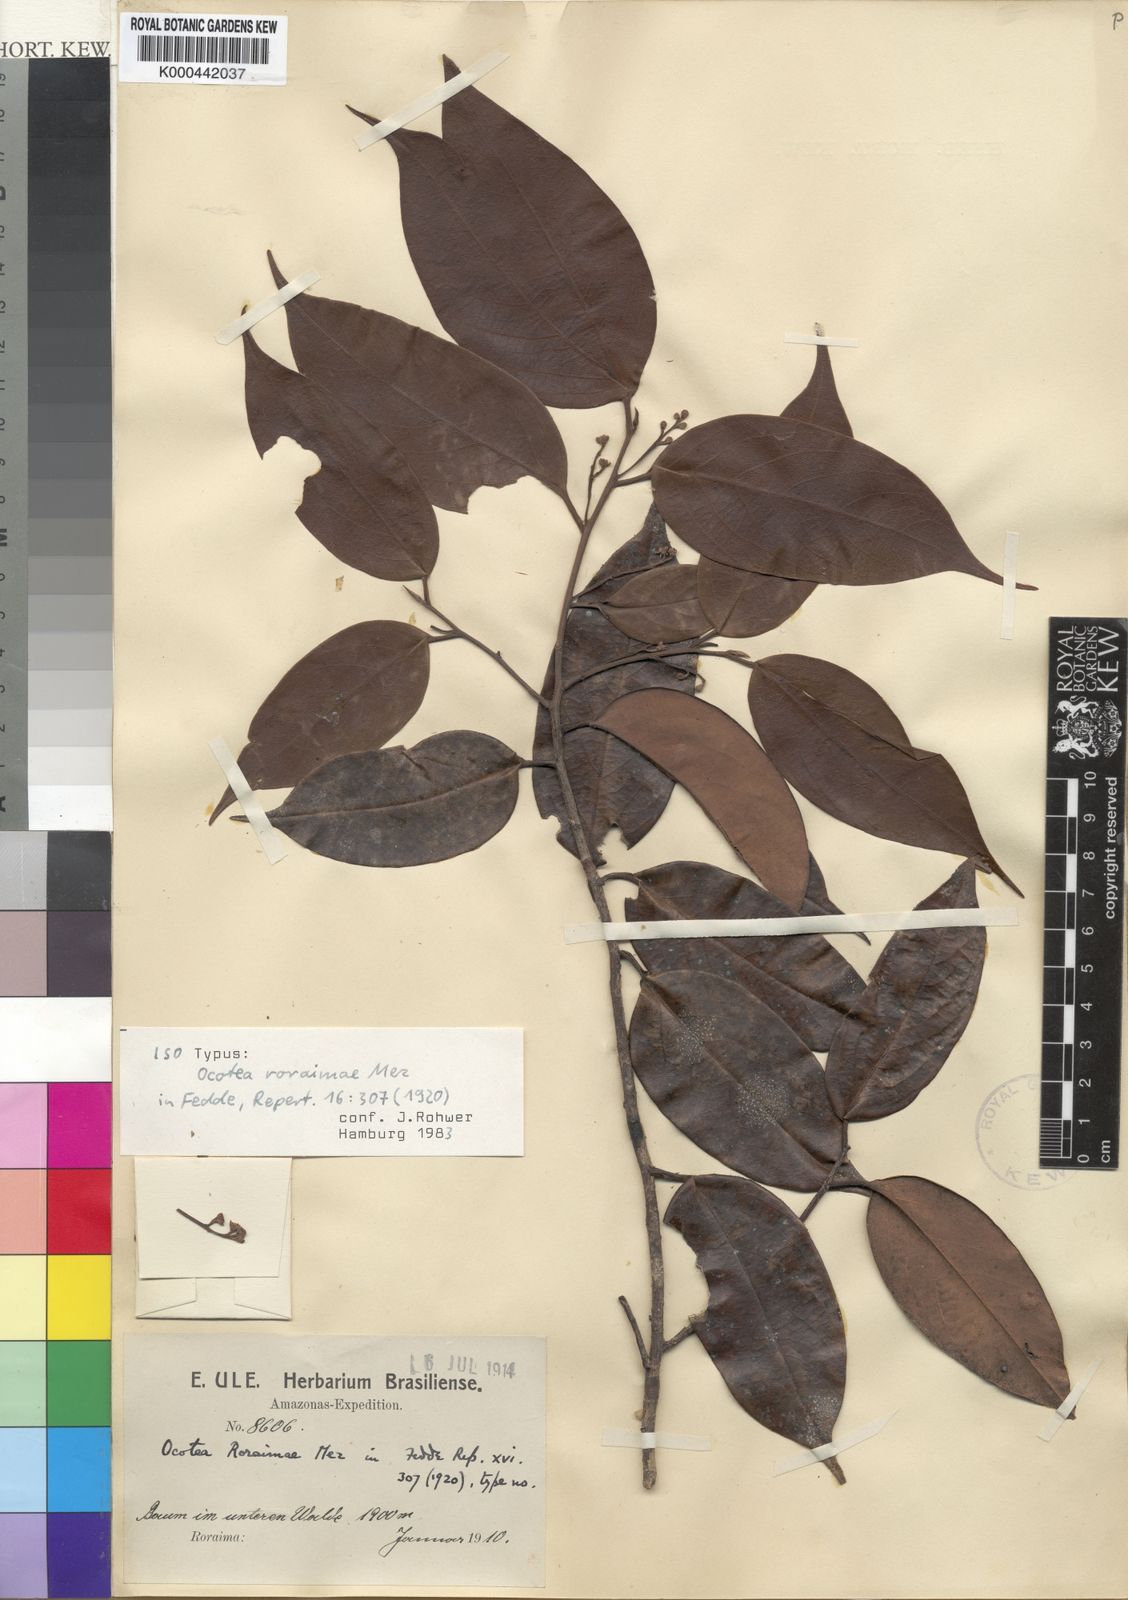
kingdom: Plantae
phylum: Tracheophyta
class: Magnoliopsida
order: Laurales
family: Lauraceae
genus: Ocotea
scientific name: Ocotea aciphylla
